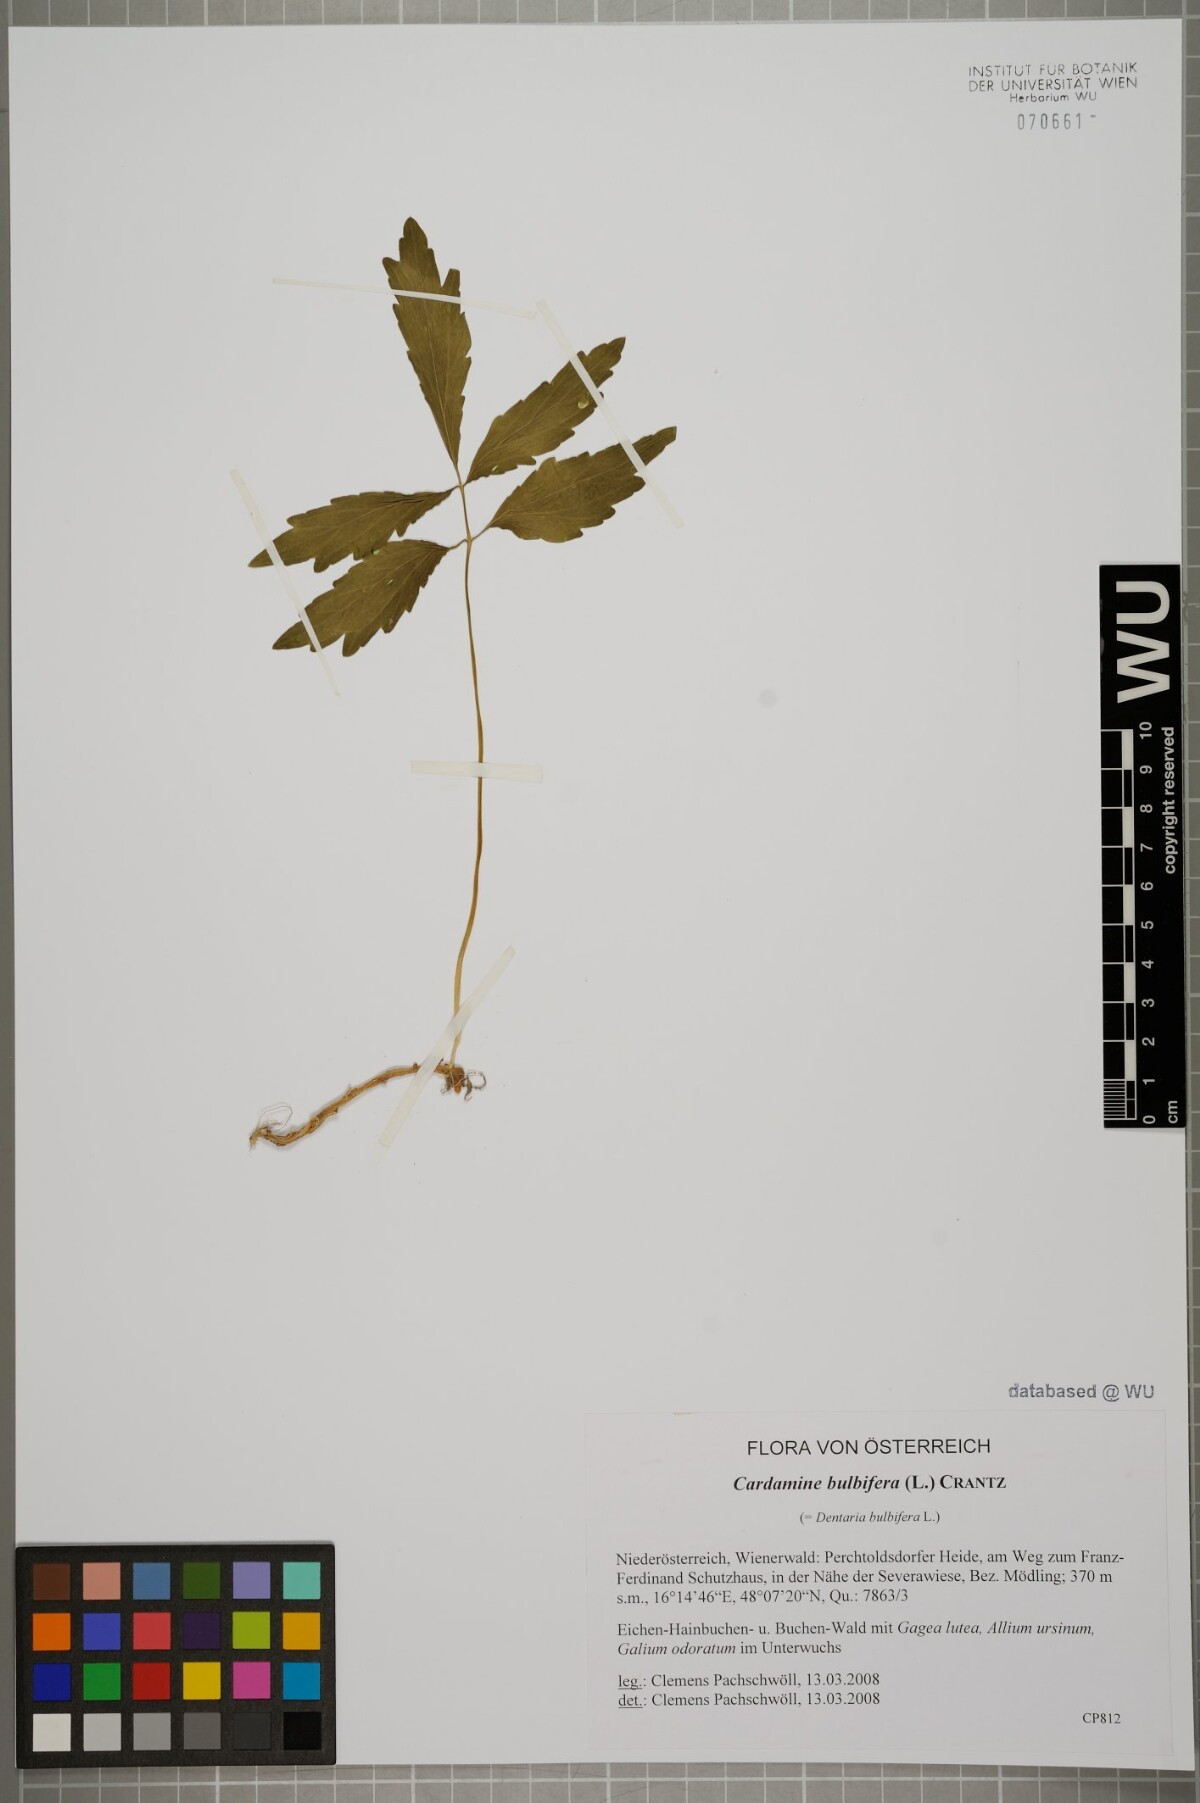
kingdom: Plantae
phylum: Tracheophyta
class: Magnoliopsida
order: Brassicales
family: Brassicaceae
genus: Cardamine
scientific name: Cardamine bulbifera
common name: Coralroot bittercress
